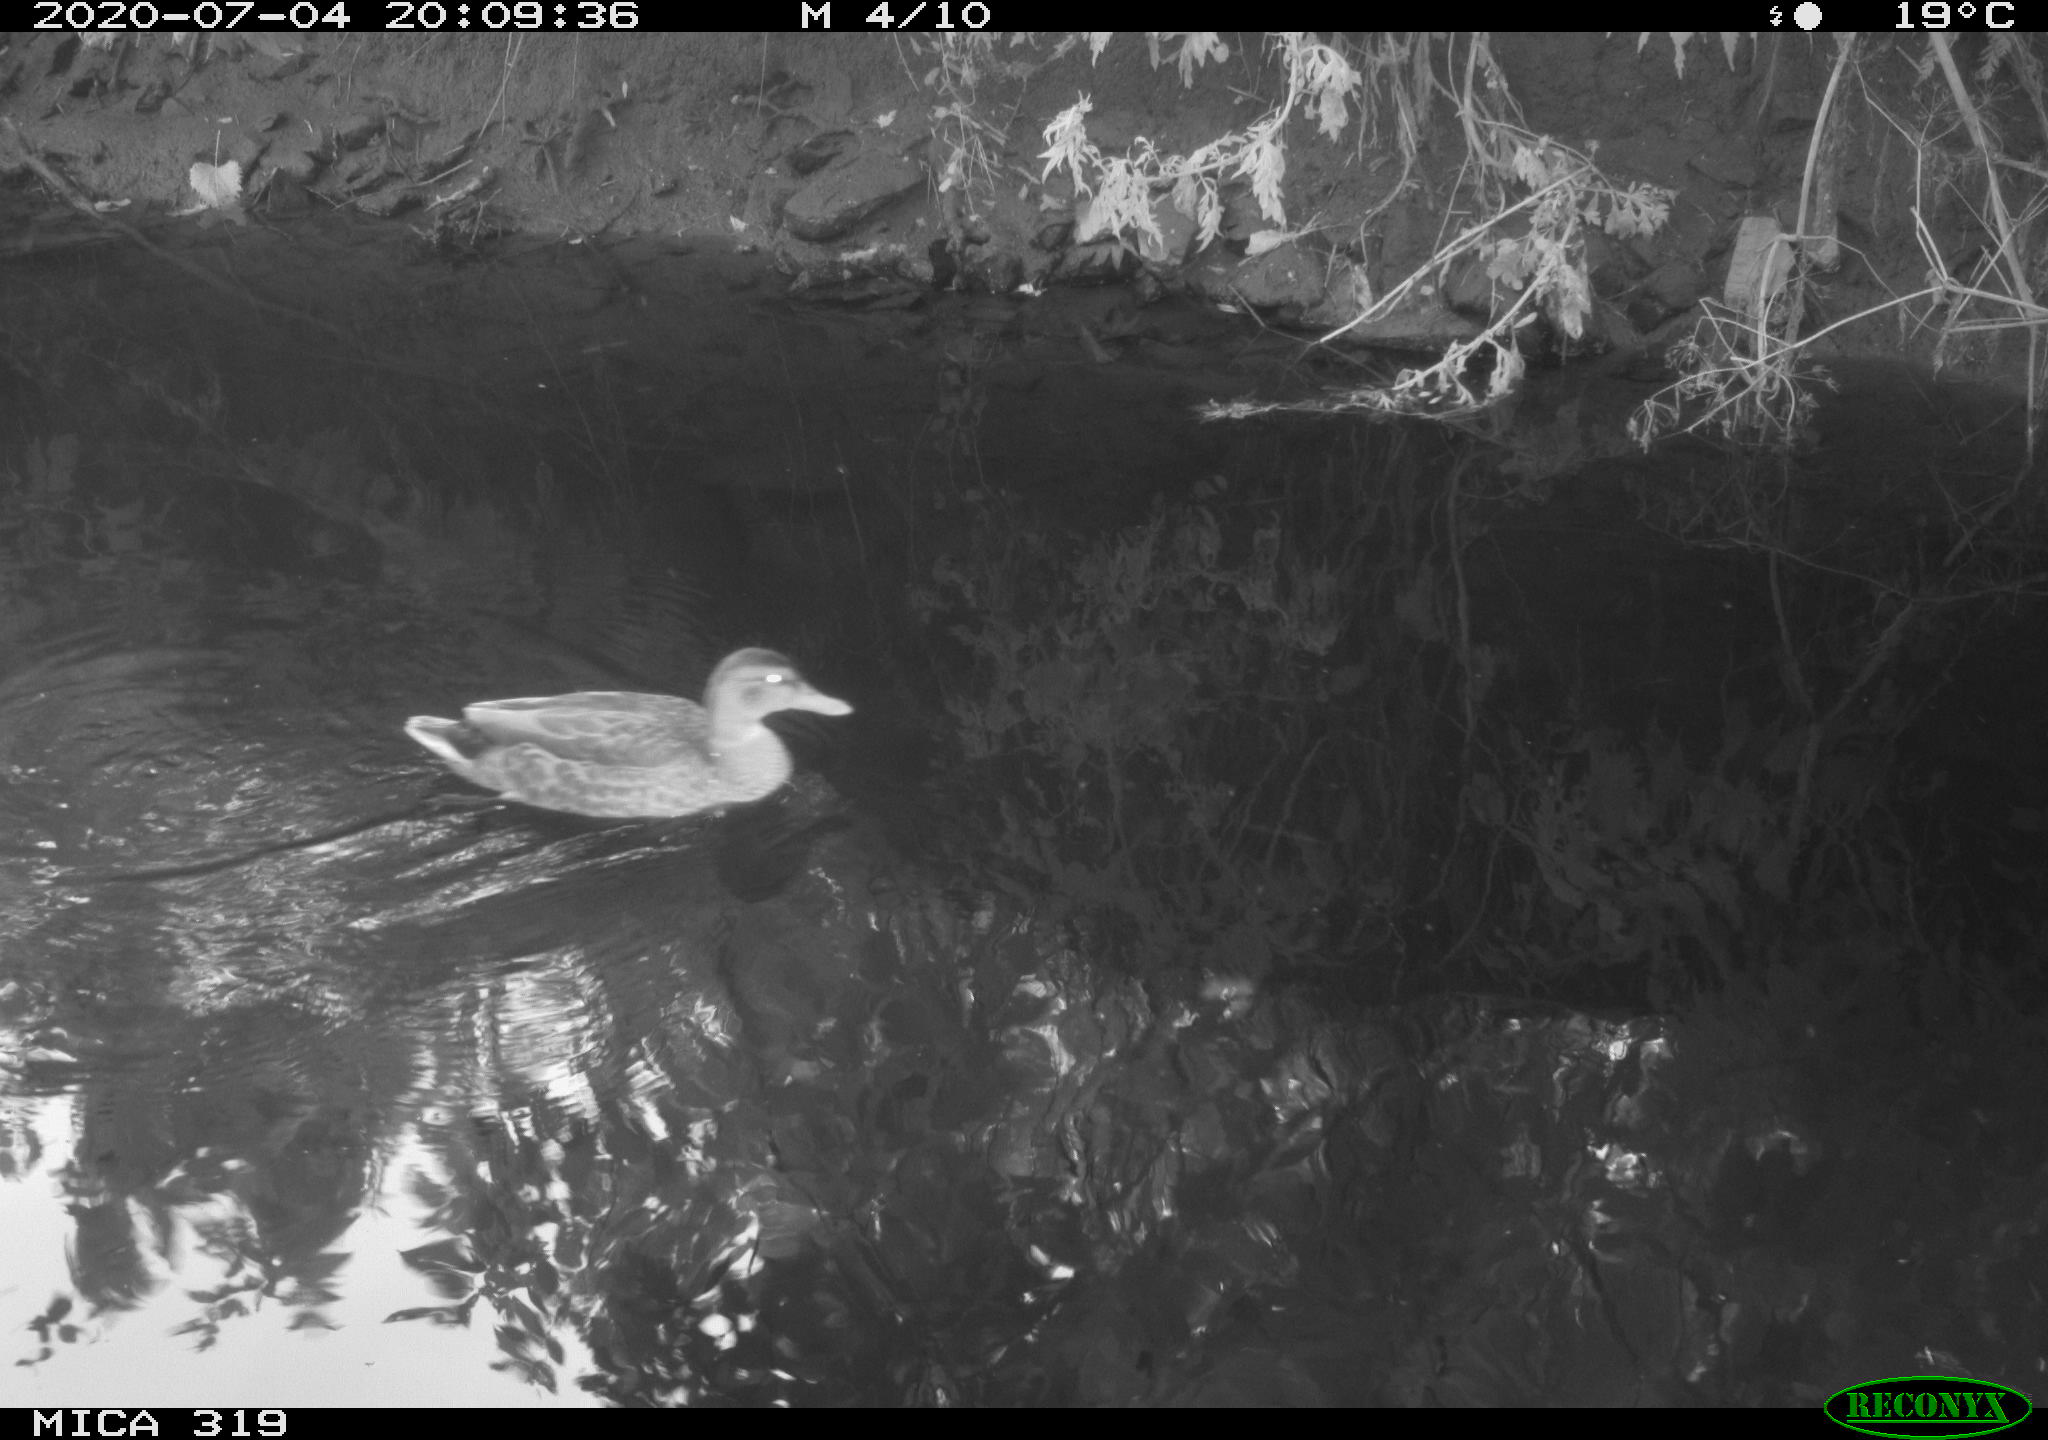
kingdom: Animalia
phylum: Chordata
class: Aves
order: Anseriformes
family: Anatidae
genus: Anas
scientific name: Anas platyrhynchos
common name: Mallard
